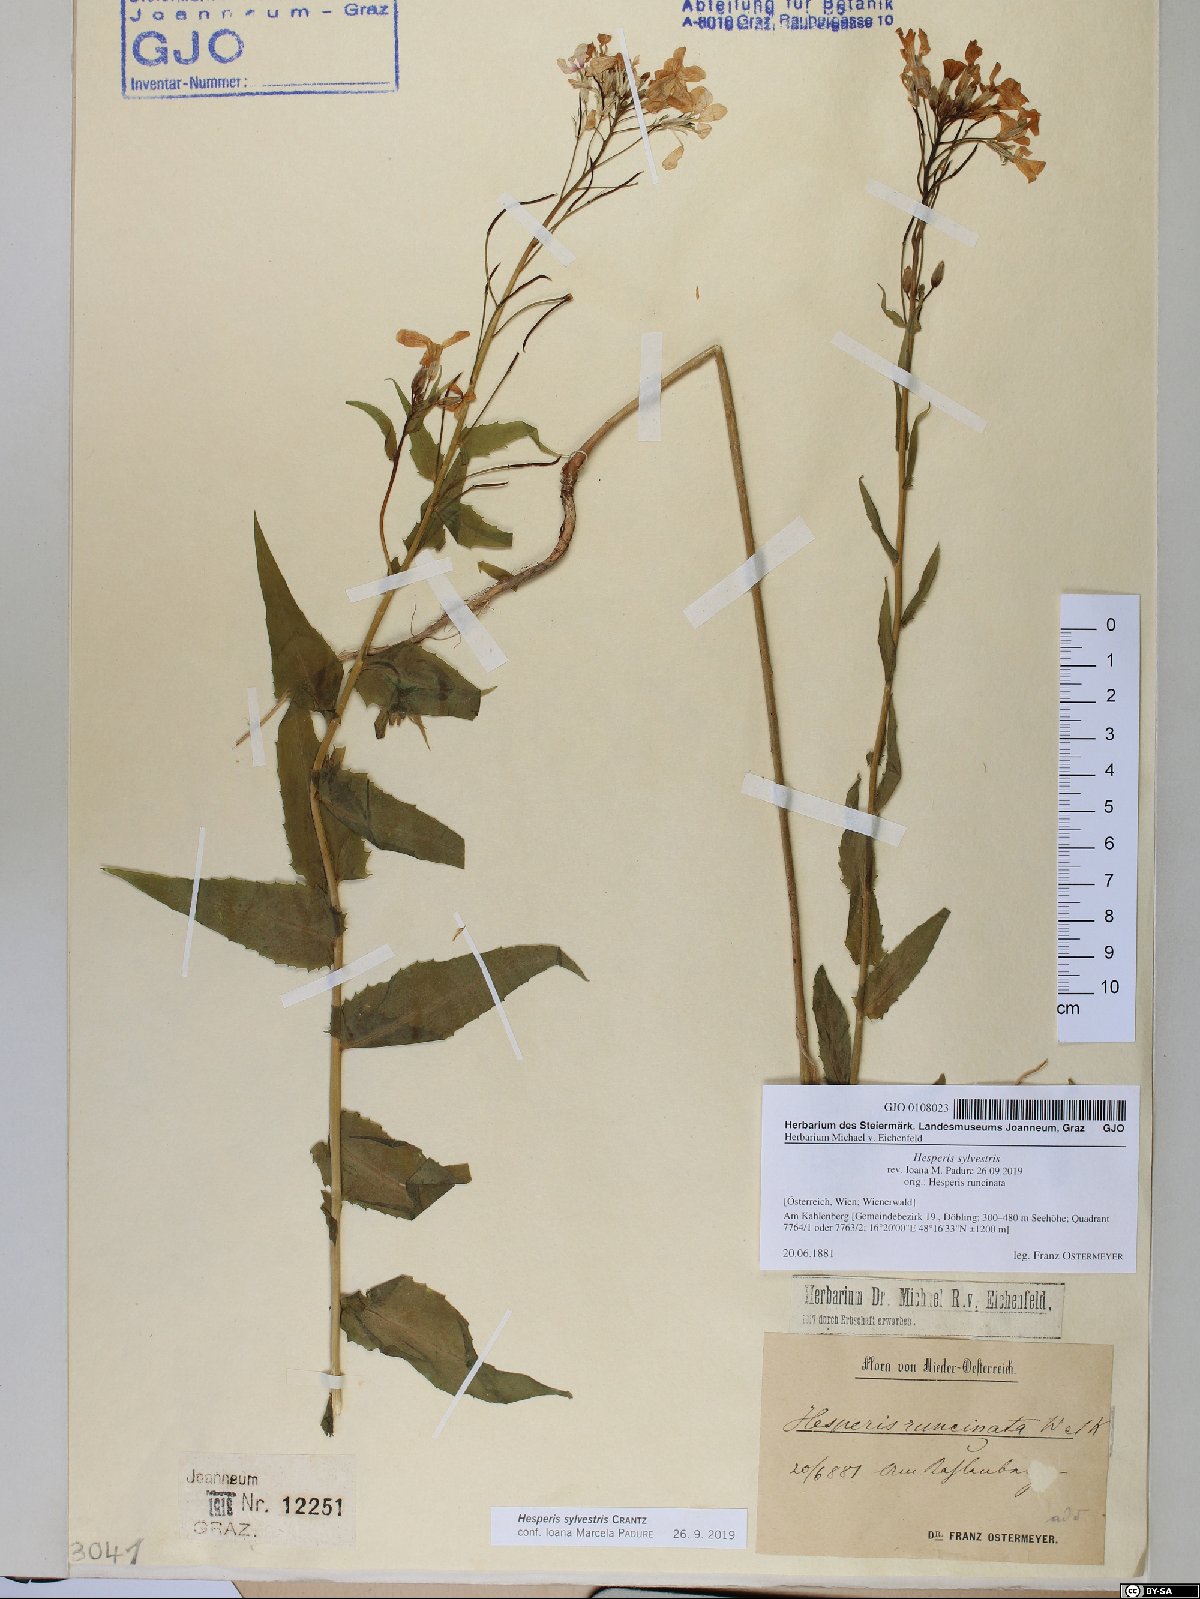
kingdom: Plantae
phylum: Tracheophyta
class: Magnoliopsida
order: Brassicales
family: Brassicaceae
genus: Hesperis
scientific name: Hesperis sylvestris
